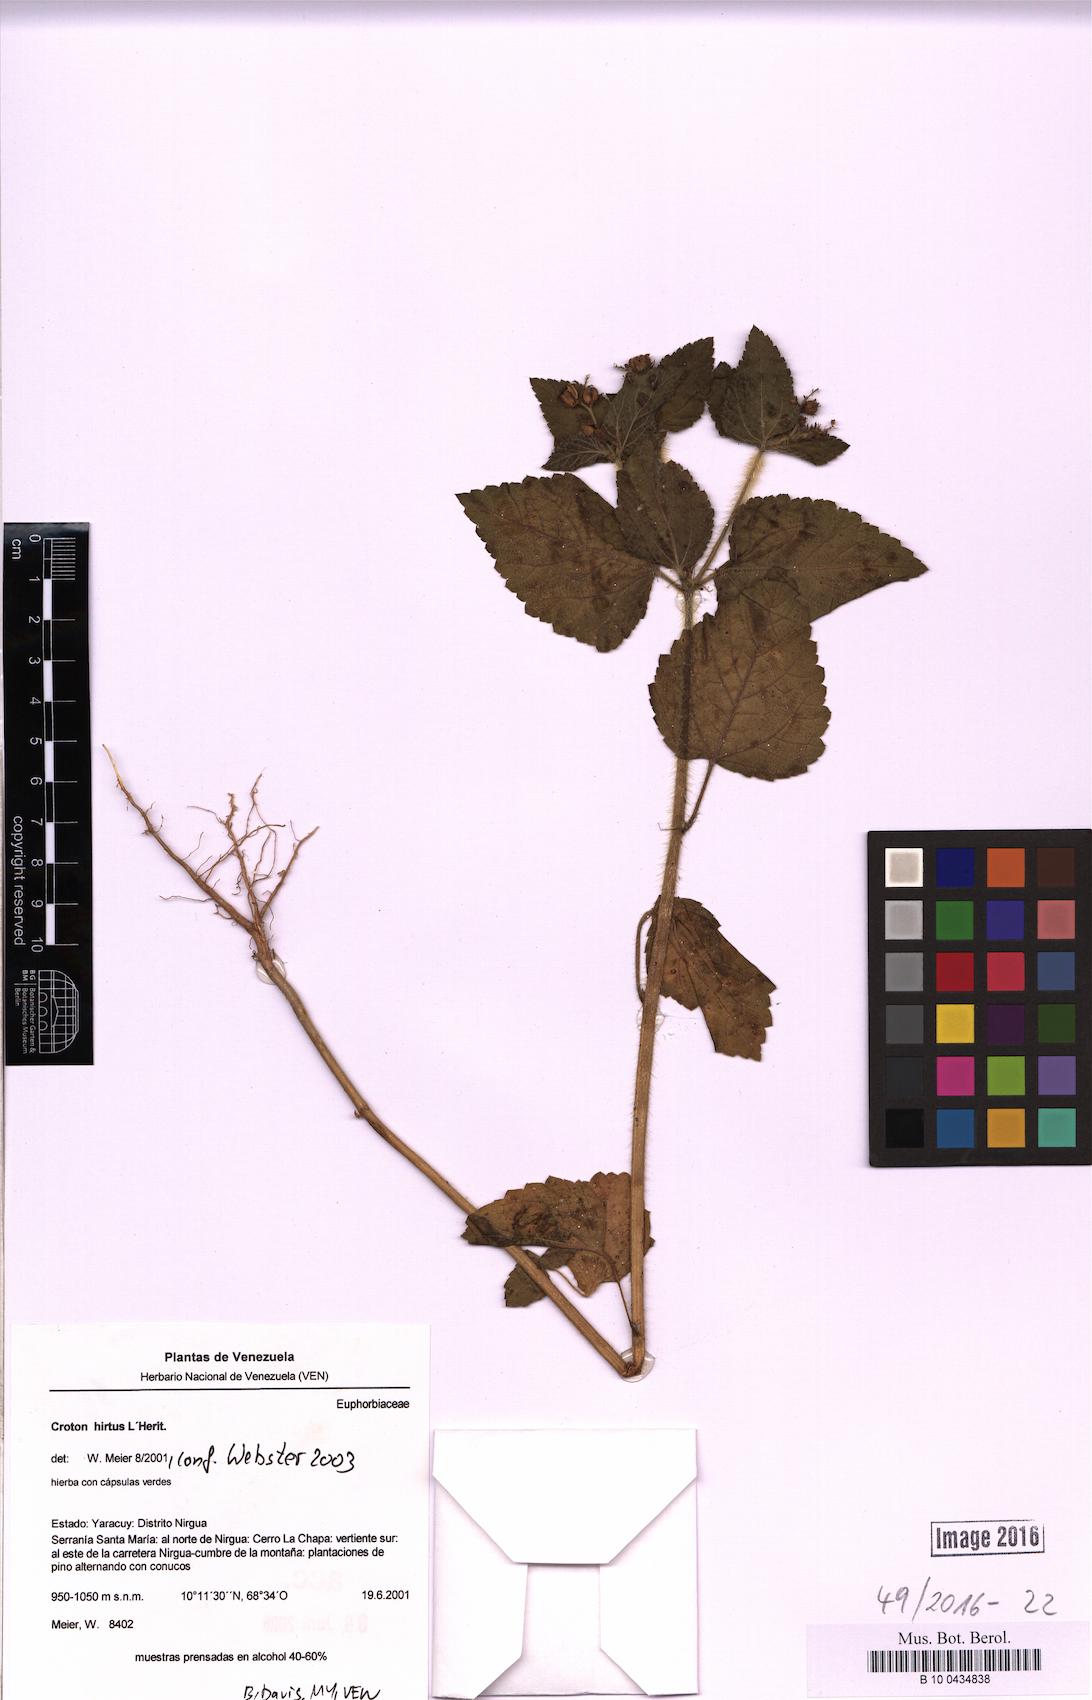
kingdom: Plantae
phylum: Tracheophyta
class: Magnoliopsida
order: Malpighiales
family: Euphorbiaceae
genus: Croton
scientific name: Croton hirtus
